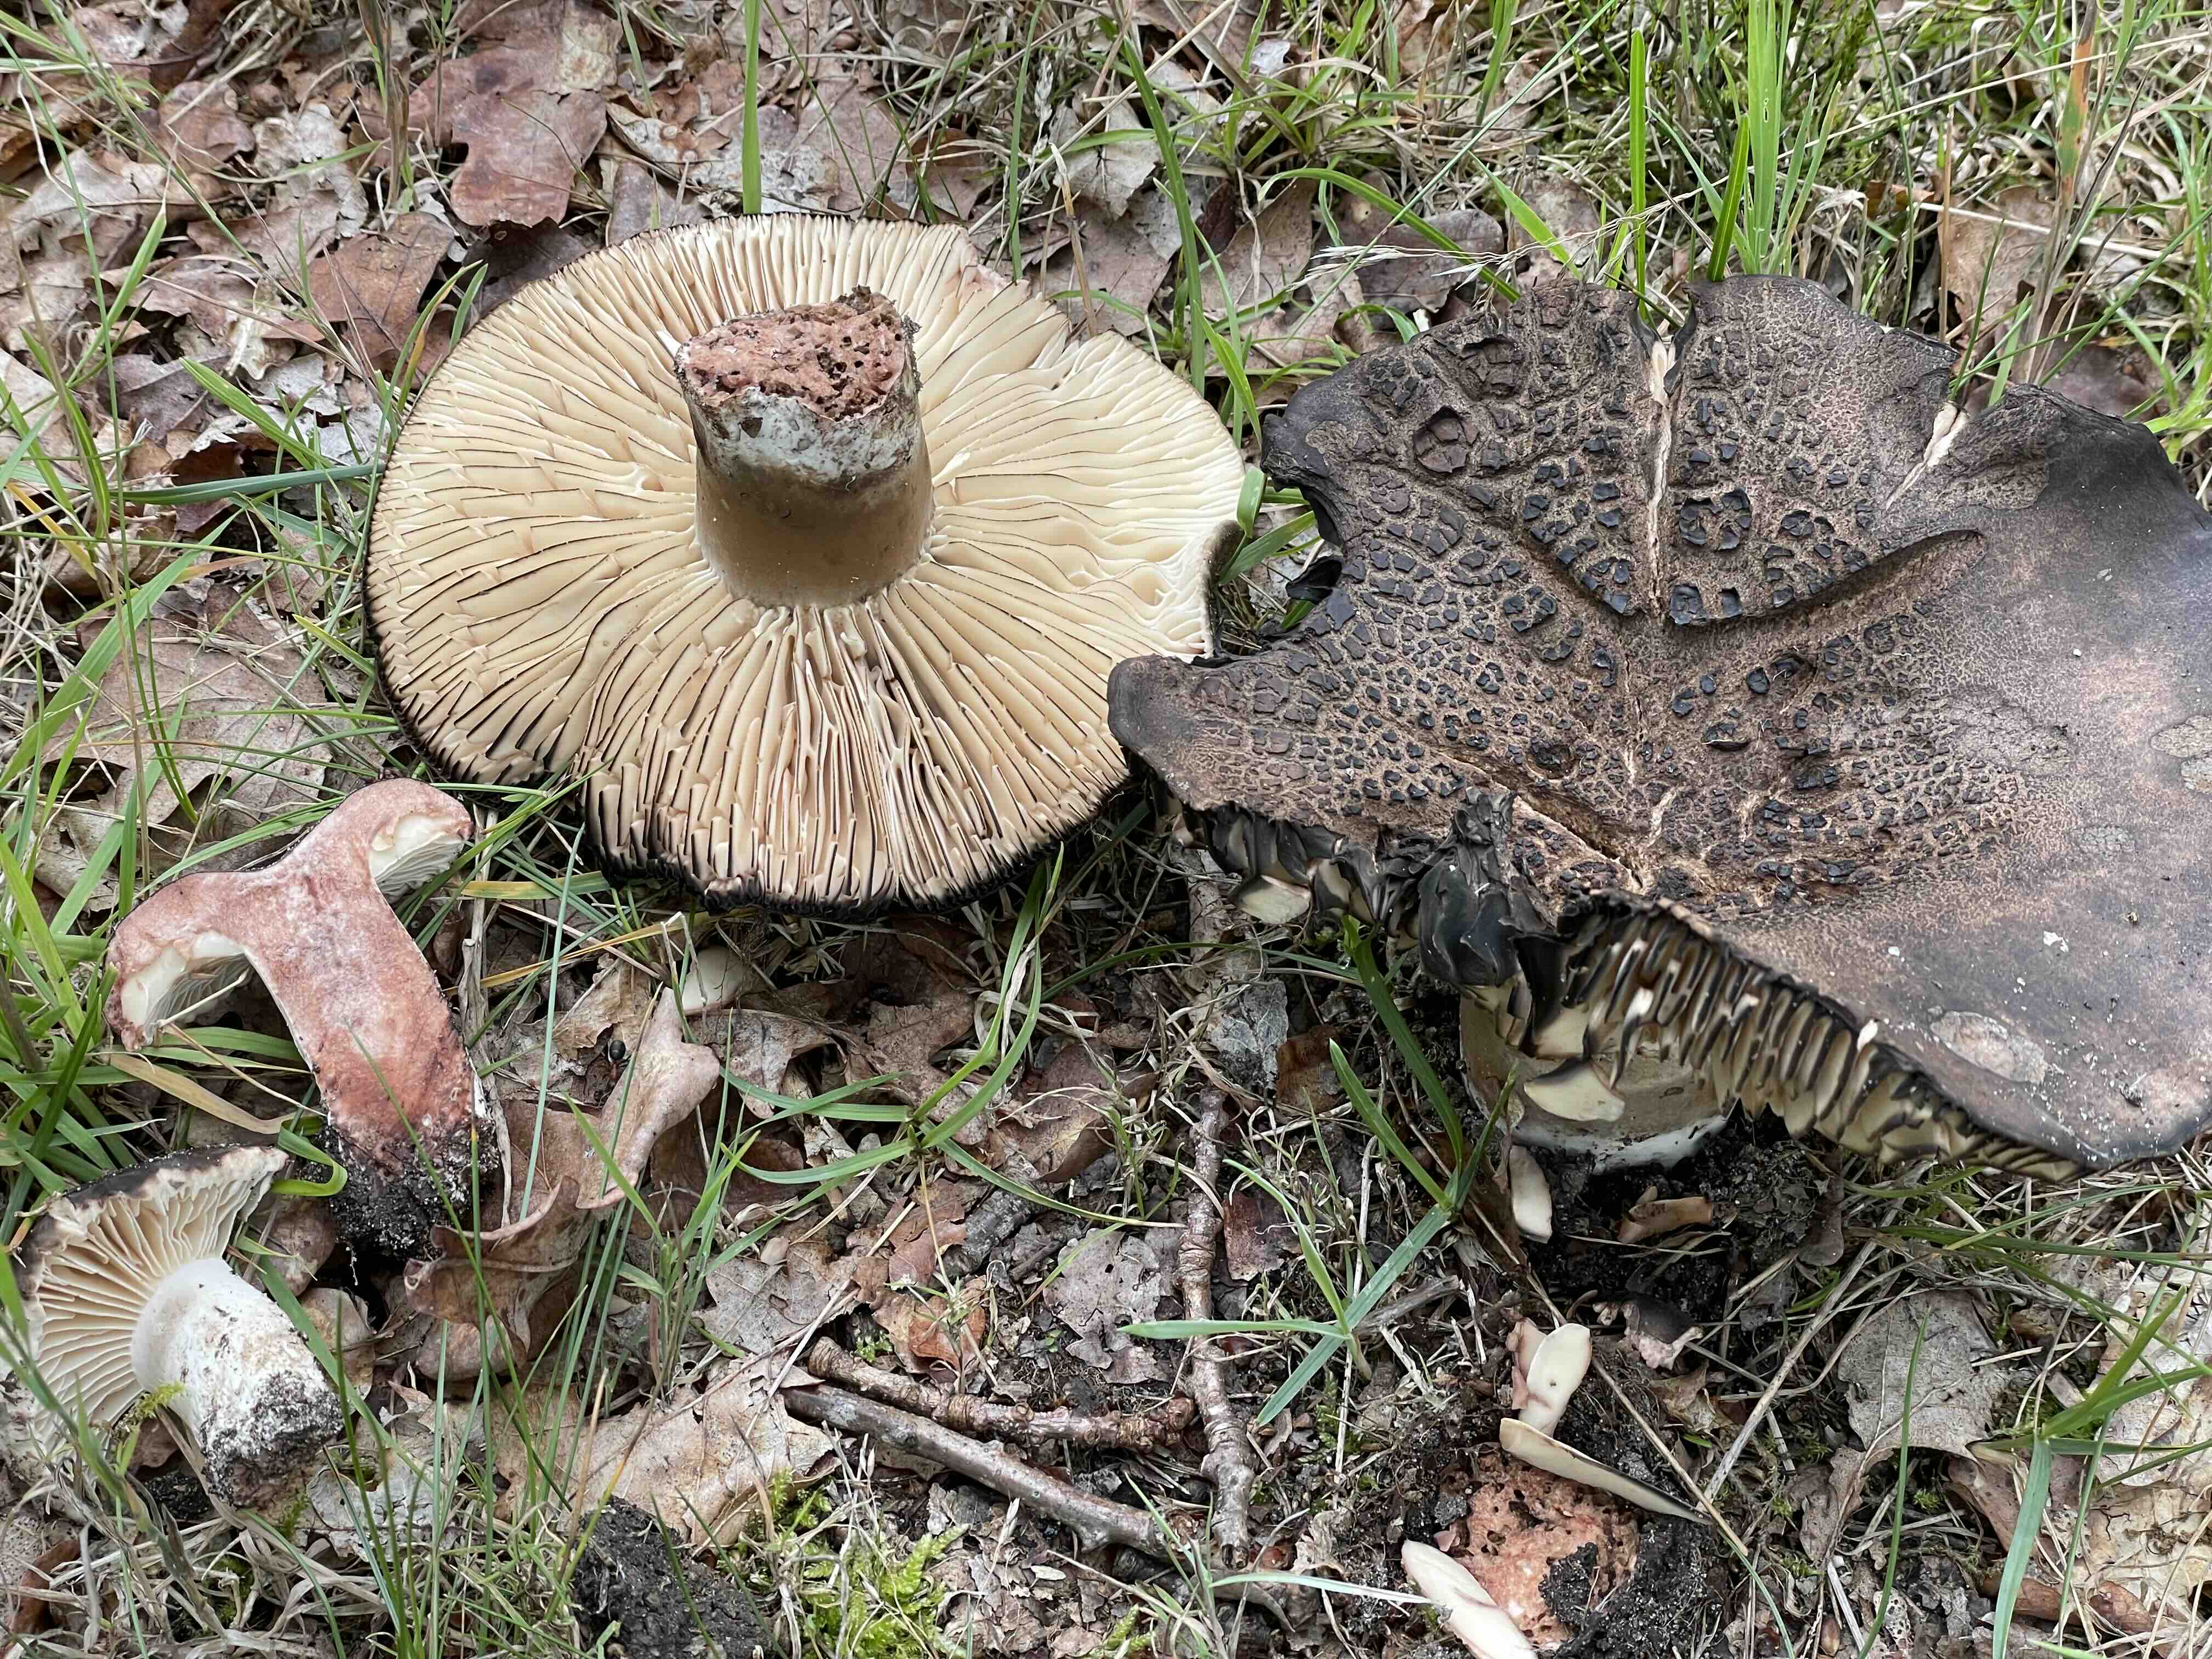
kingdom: Fungi
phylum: Basidiomycota
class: Agaricomycetes
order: Russulales
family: Russulaceae
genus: Russula
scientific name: Russula adusta
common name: sværtende skørhat
